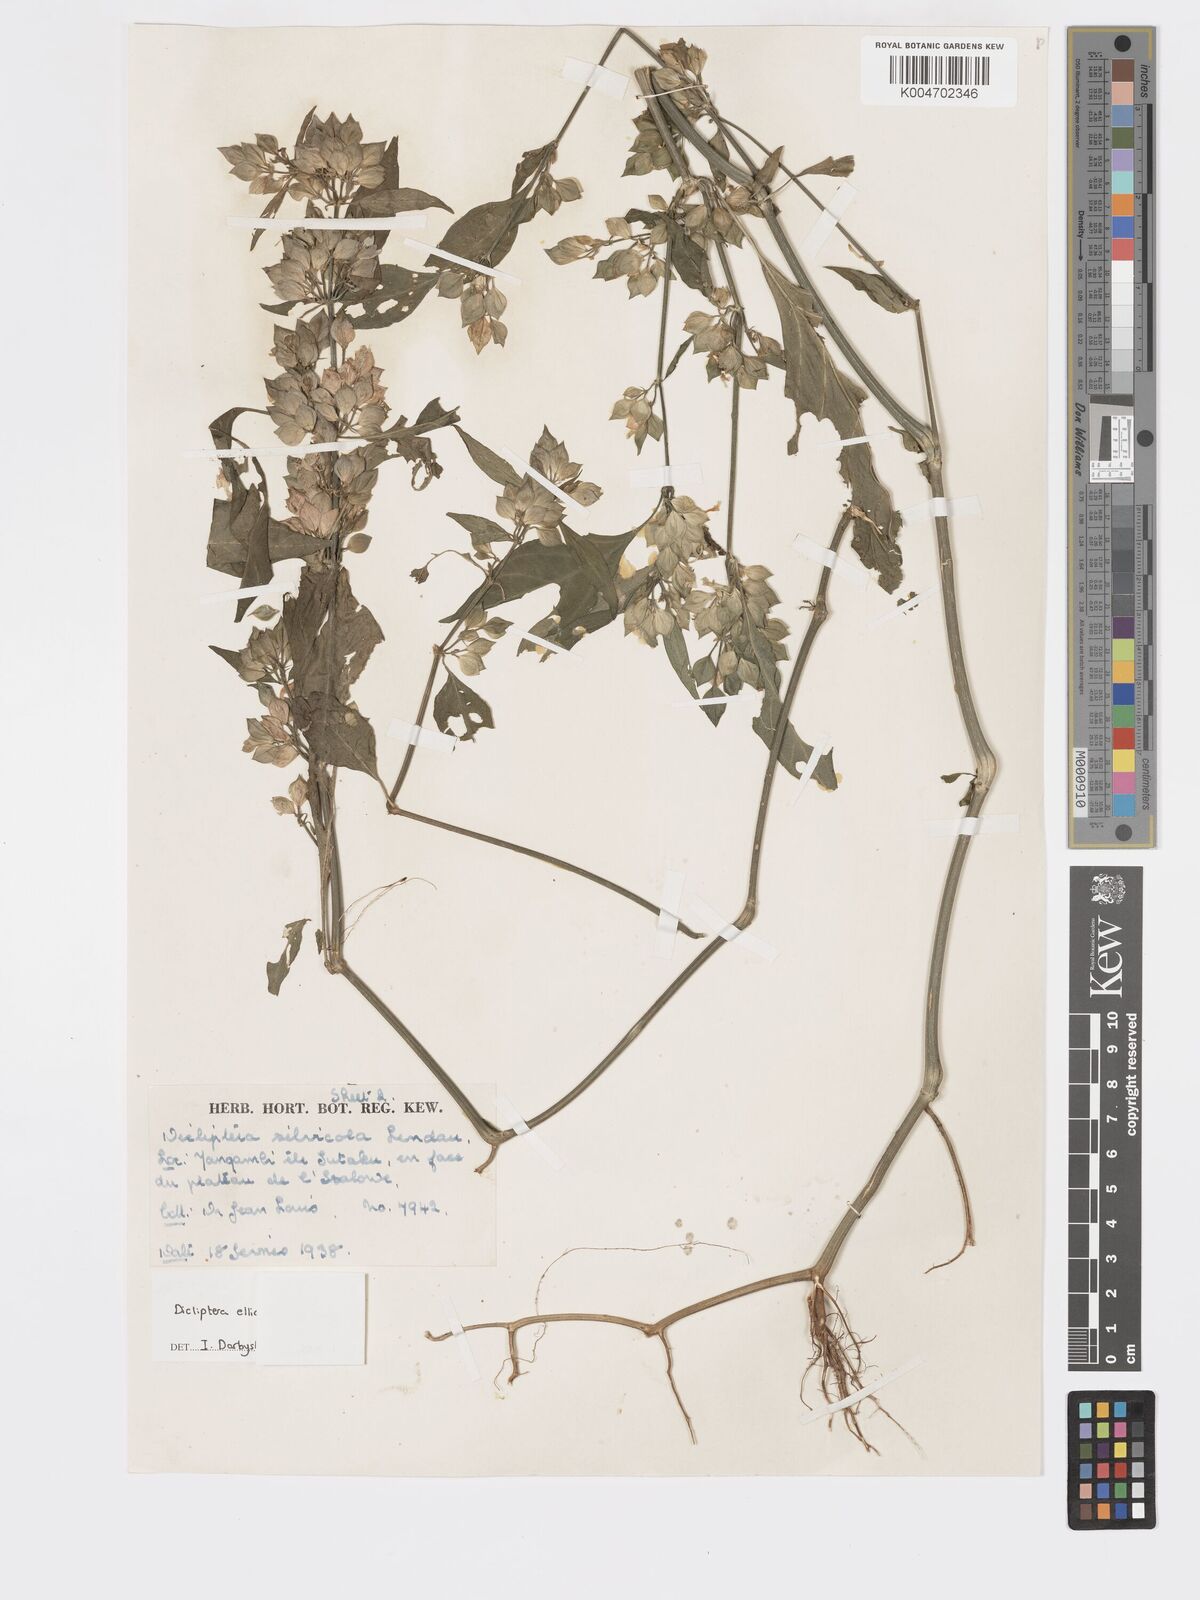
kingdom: Plantae
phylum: Tracheophyta
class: Magnoliopsida
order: Lamiales
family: Acanthaceae
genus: Dicliptera
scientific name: Dicliptera elliotii
